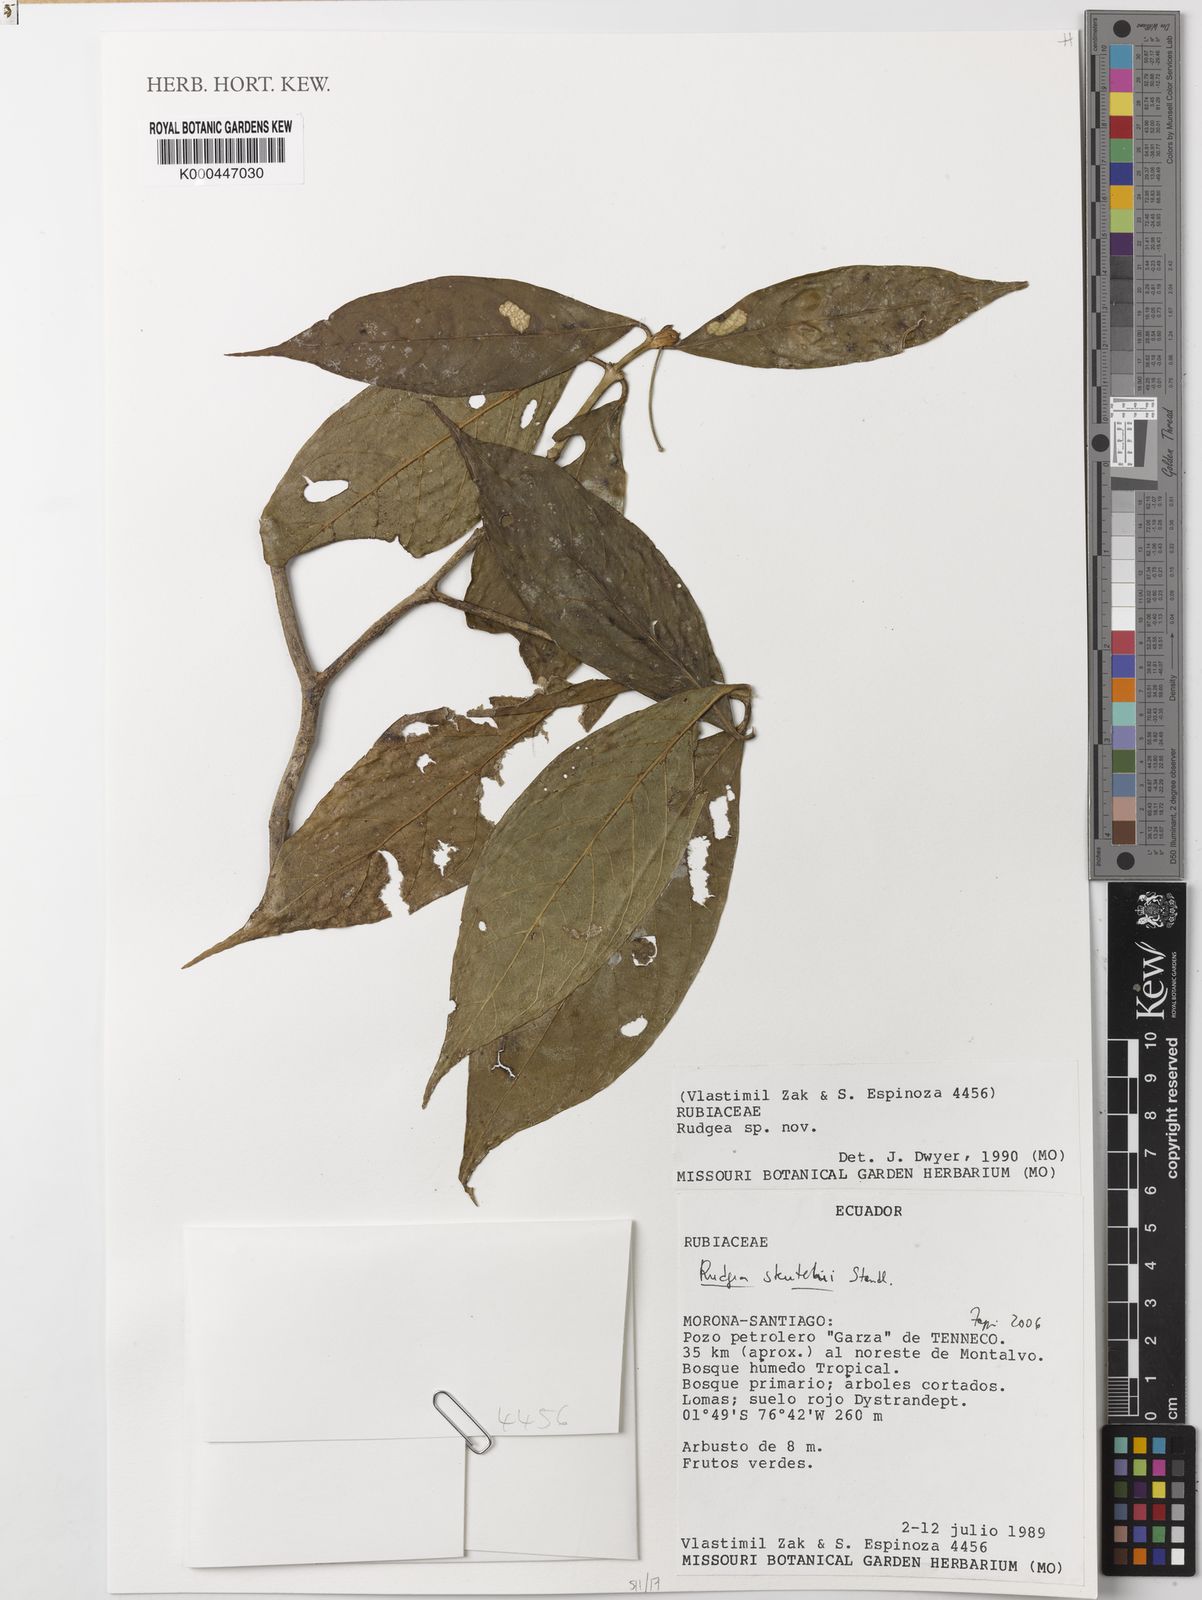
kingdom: Plantae
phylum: Tracheophyta
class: Magnoliopsida
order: Gentianales
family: Rubiaceae
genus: Rudgea
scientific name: Rudgea skutchii
